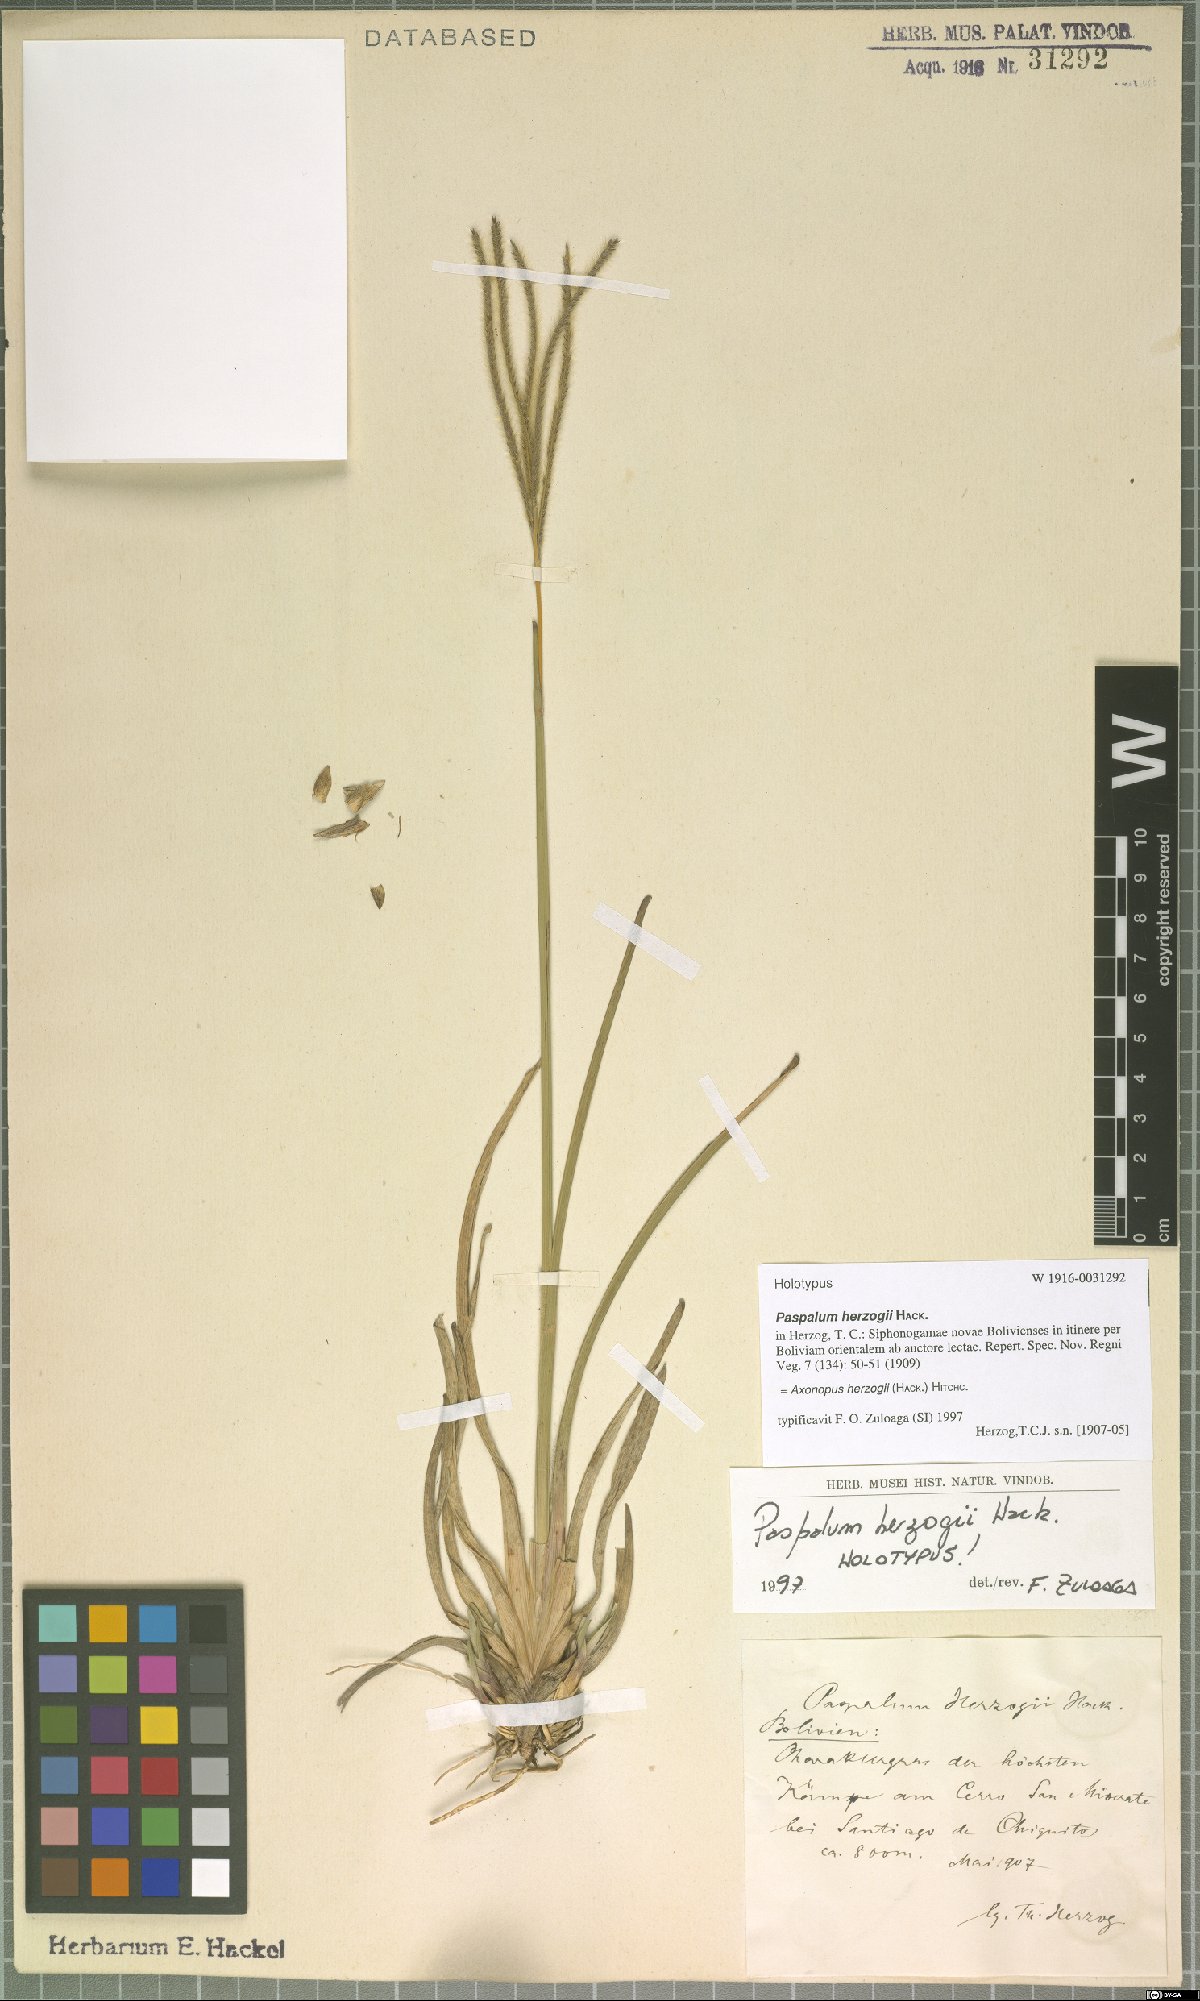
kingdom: Plantae
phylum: Tracheophyta
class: Liliopsida
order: Poales
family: Poaceae
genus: Axonopus
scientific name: Axonopus herzogii
